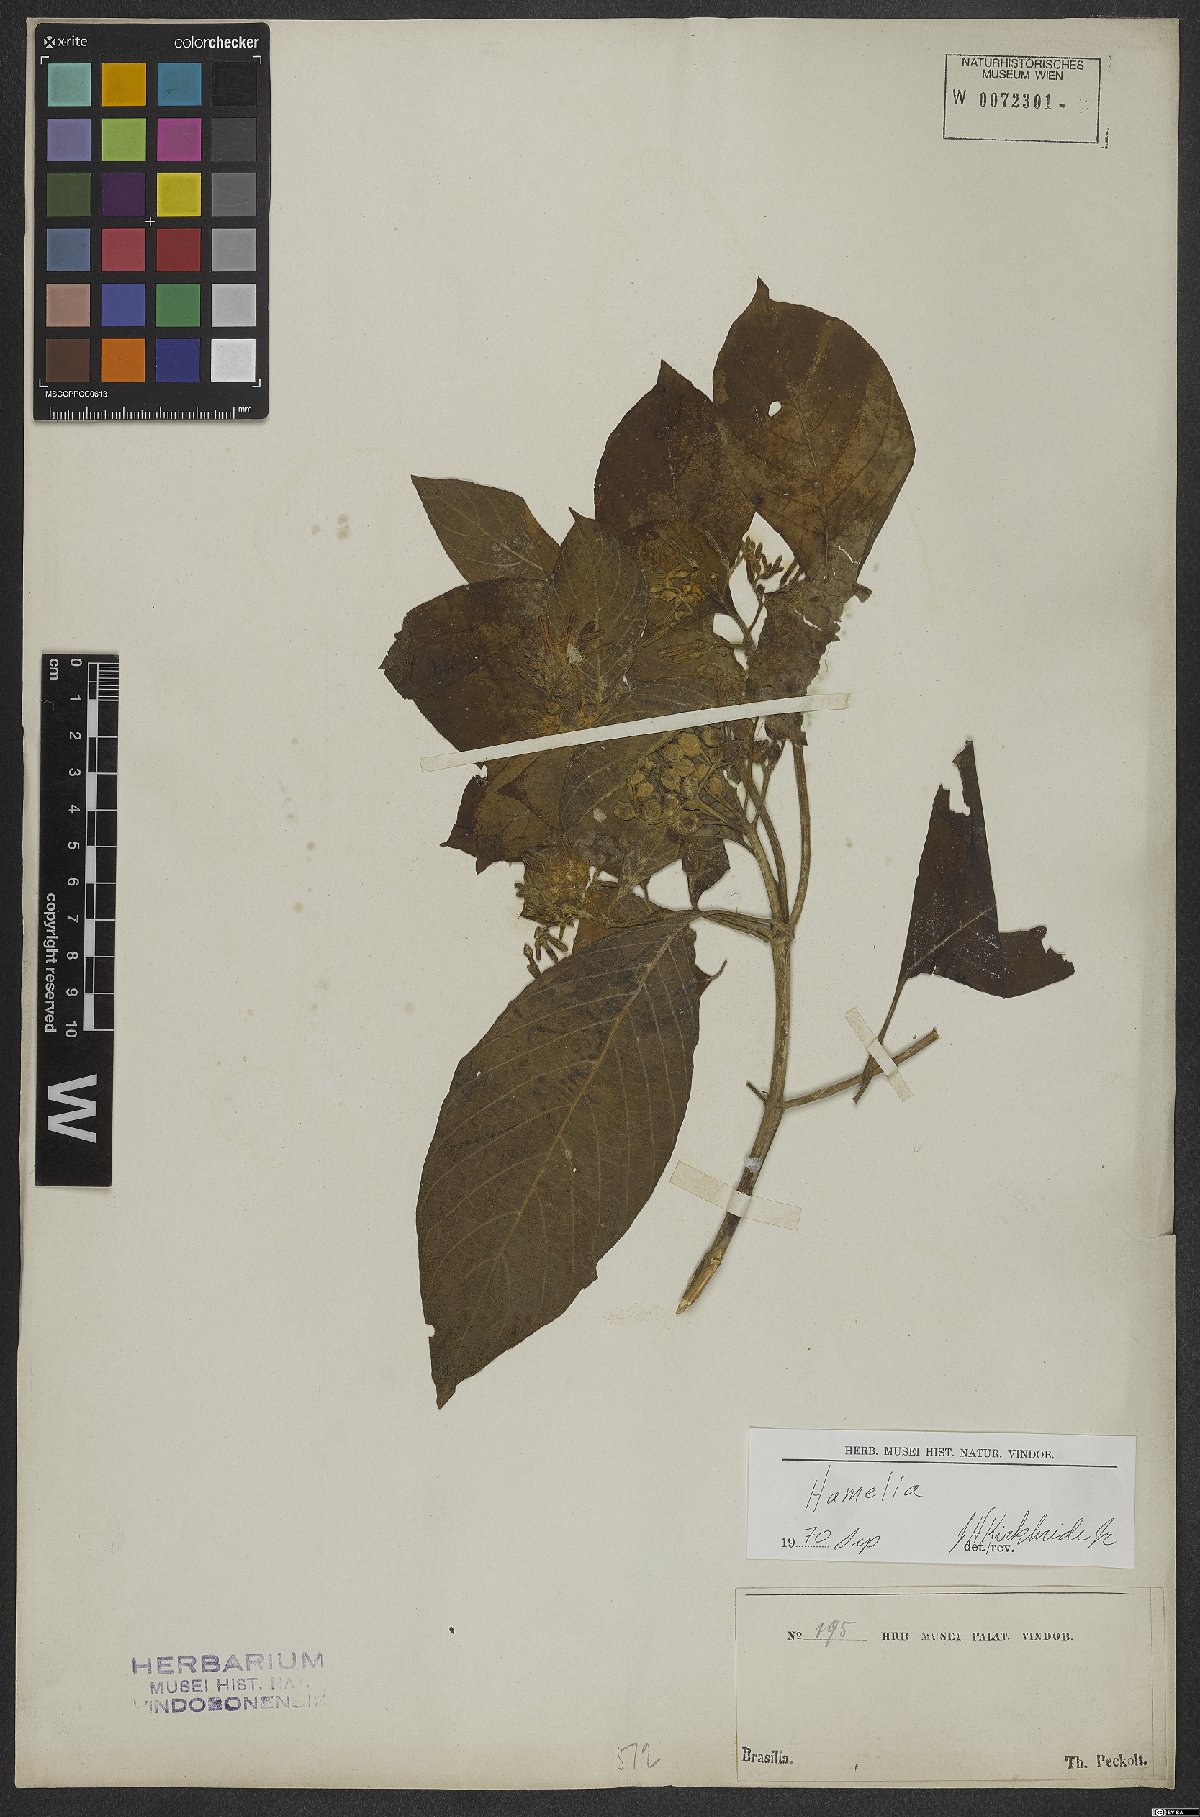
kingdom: Plantae
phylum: Tracheophyta
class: Magnoliopsida
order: Gentianales
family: Rubiaceae
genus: Hamelia
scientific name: Hamelia
